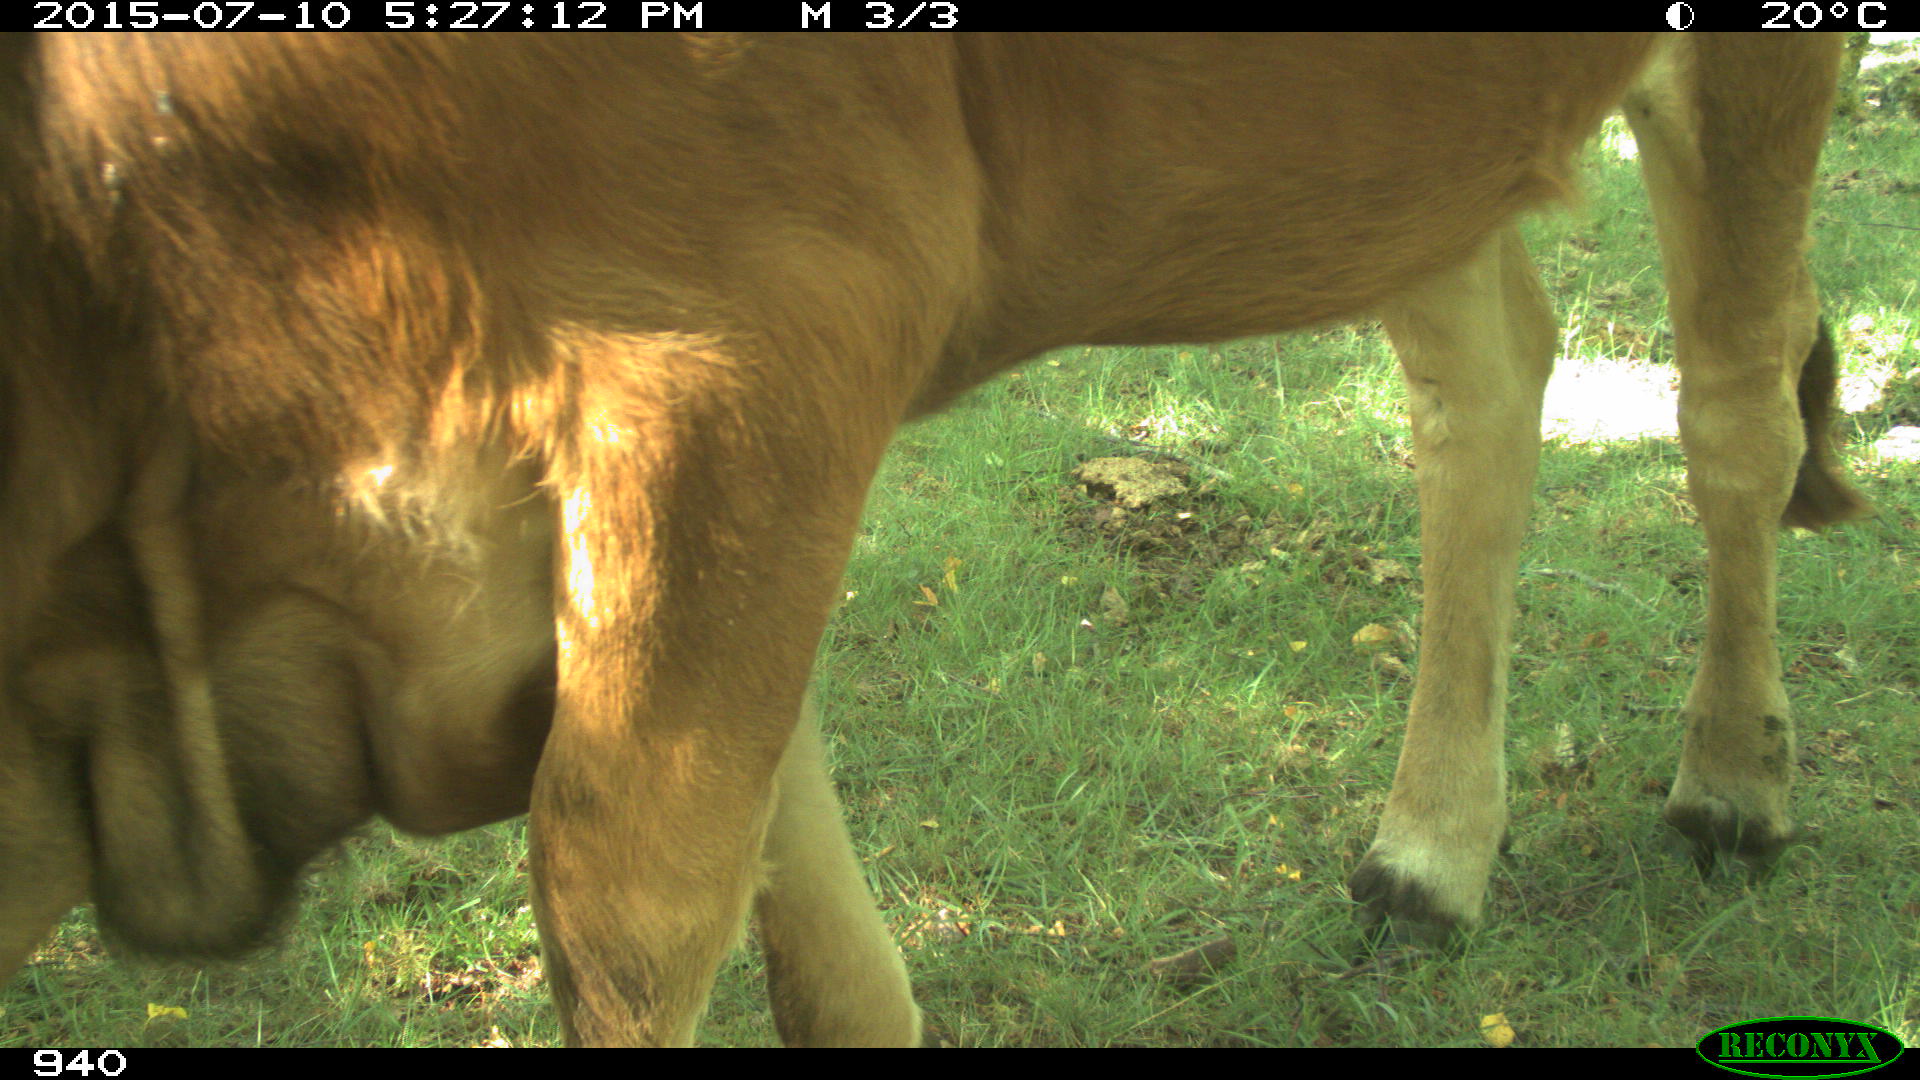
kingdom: Animalia
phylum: Chordata
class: Mammalia
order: Artiodactyla
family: Bovidae
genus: Bos
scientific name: Bos taurus
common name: Domesticated cattle
